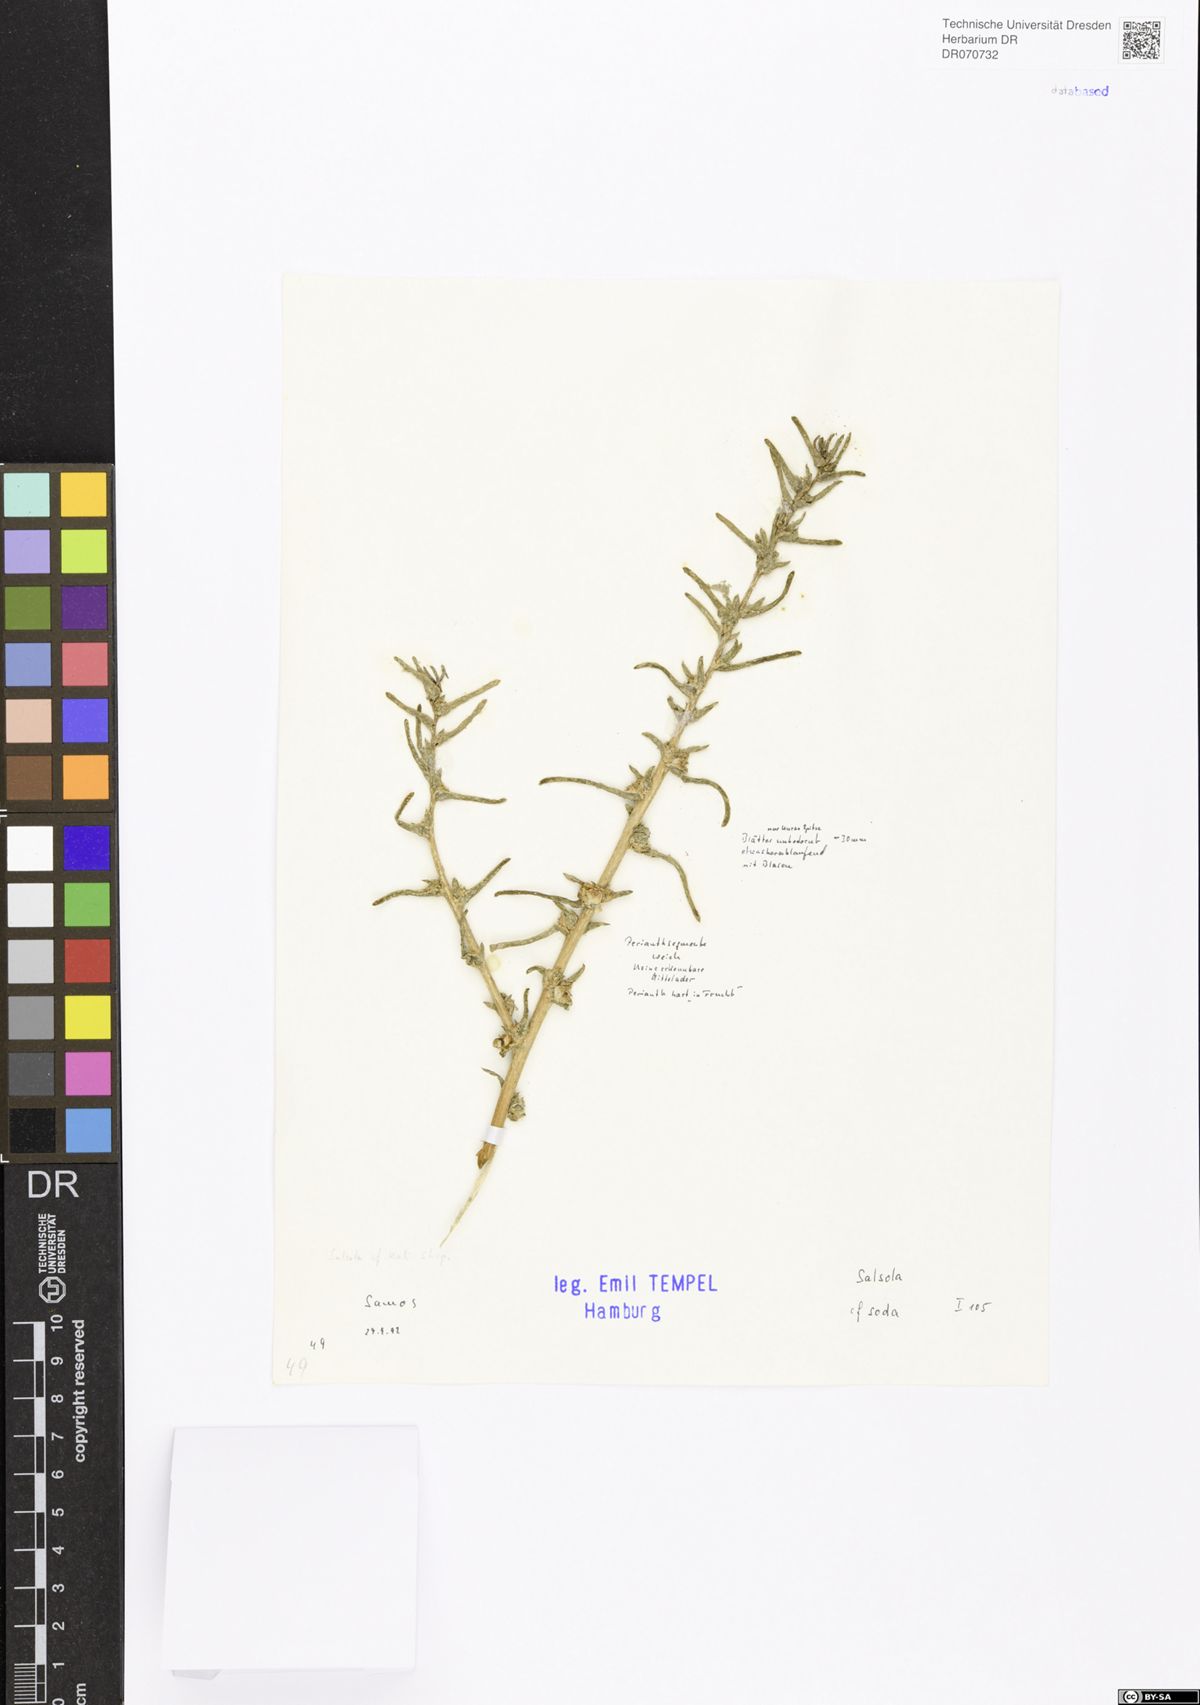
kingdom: Plantae
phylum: Tracheophyta
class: Magnoliopsida
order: Caryophyllales
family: Amaranthaceae
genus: Soda
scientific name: Soda inermis
